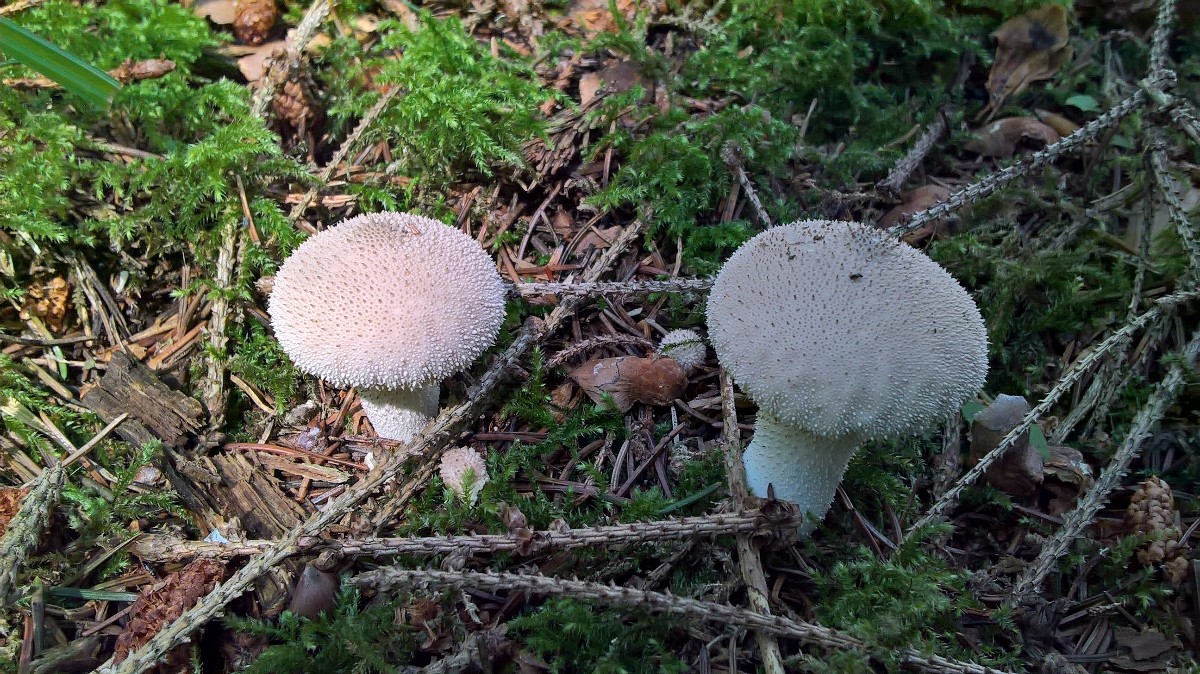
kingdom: Fungi
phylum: Basidiomycota
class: Agaricomycetes
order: Agaricales
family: Lycoperdaceae
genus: Lycoperdon
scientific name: Lycoperdon perlatum
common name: krystal-støvbold
